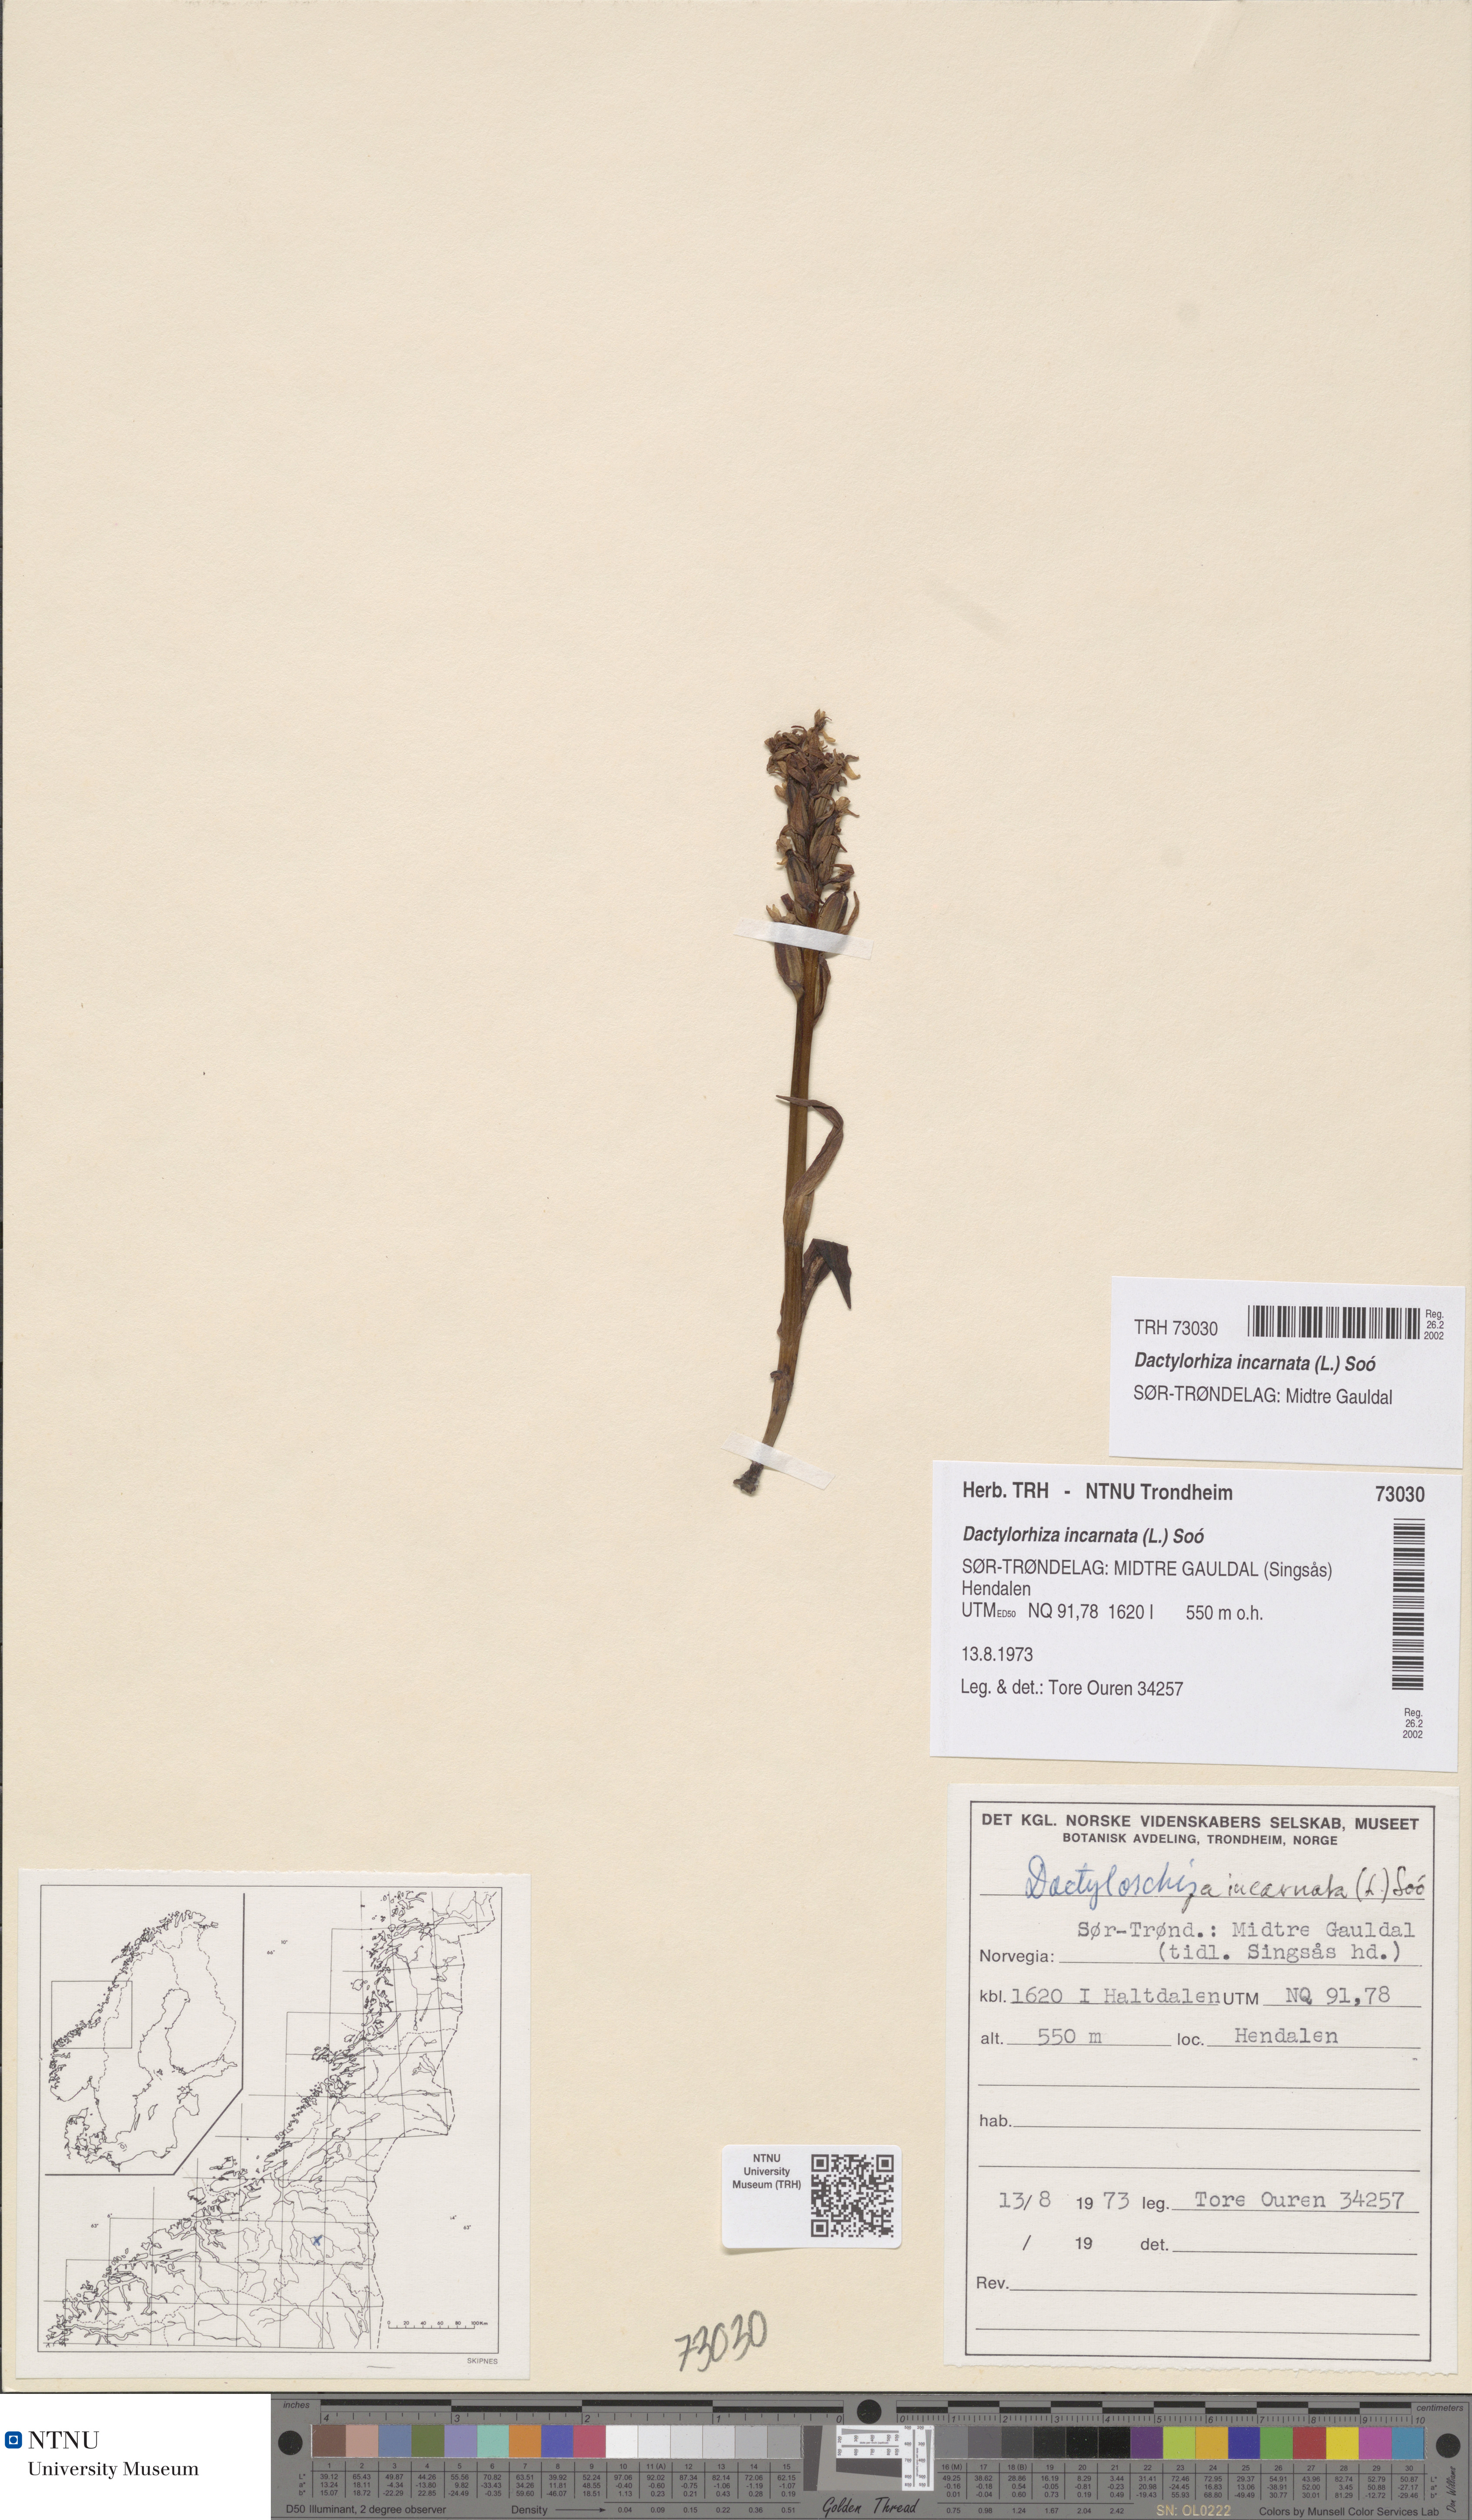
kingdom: Plantae
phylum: Tracheophyta
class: Liliopsida
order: Asparagales
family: Orchidaceae
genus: Dactylorhiza
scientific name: Dactylorhiza incarnata
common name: Early marsh-orchid
